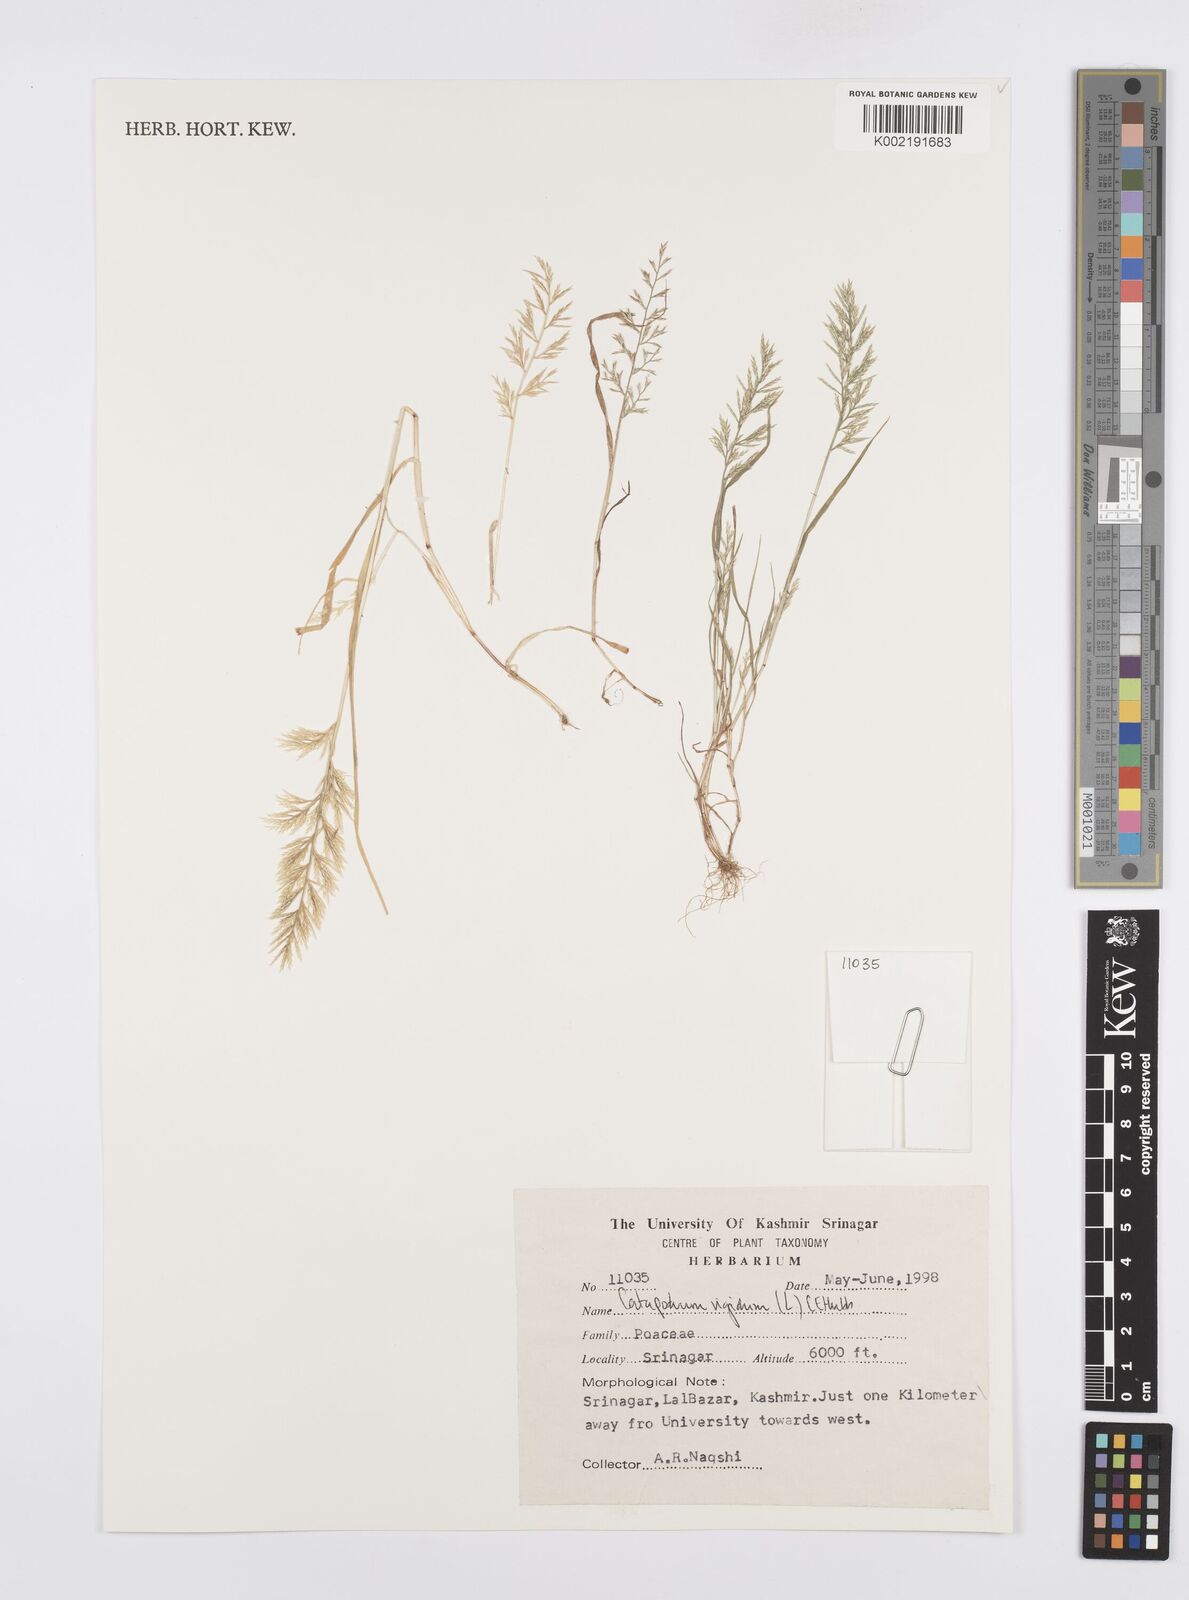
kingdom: Plantae
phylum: Tracheophyta
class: Liliopsida
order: Poales
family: Poaceae
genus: Catapodium
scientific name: Catapodium rigidum
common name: Fern-grass
